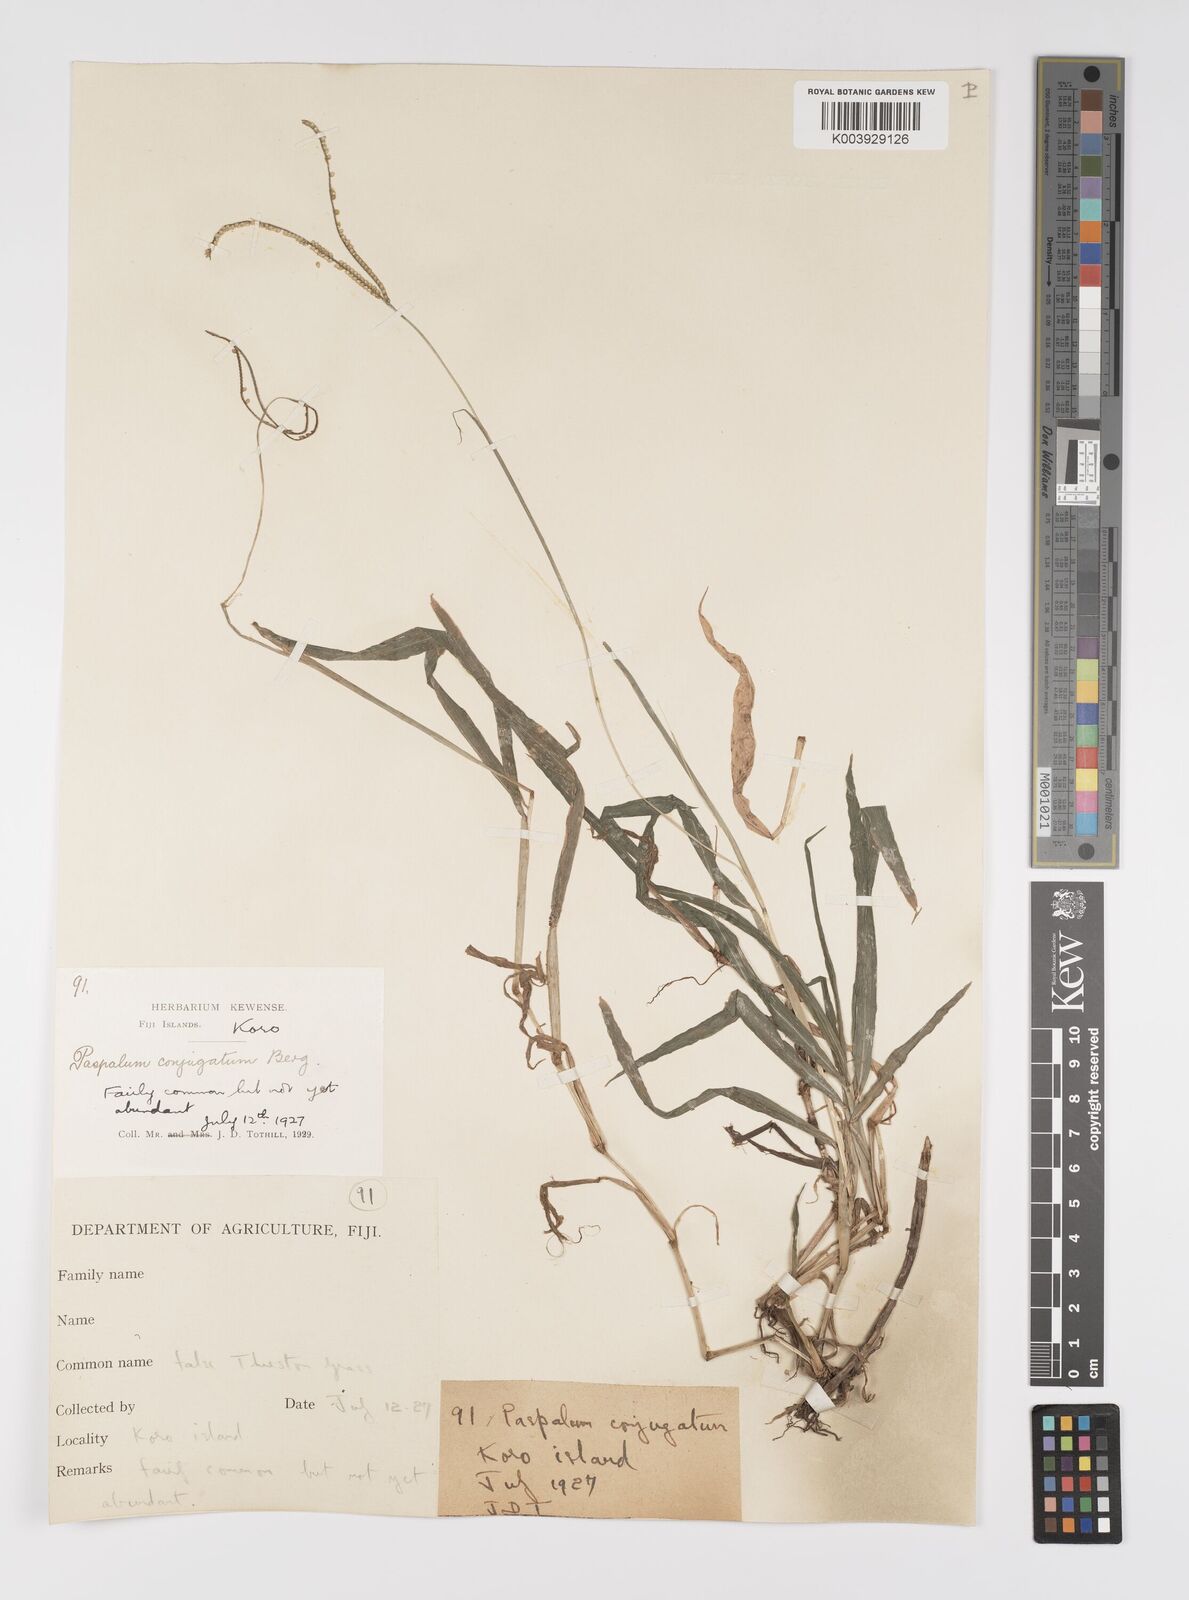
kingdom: Plantae
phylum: Tracheophyta
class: Liliopsida
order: Poales
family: Poaceae
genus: Paspalum
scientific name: Paspalum conjugatum
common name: Hilograss
